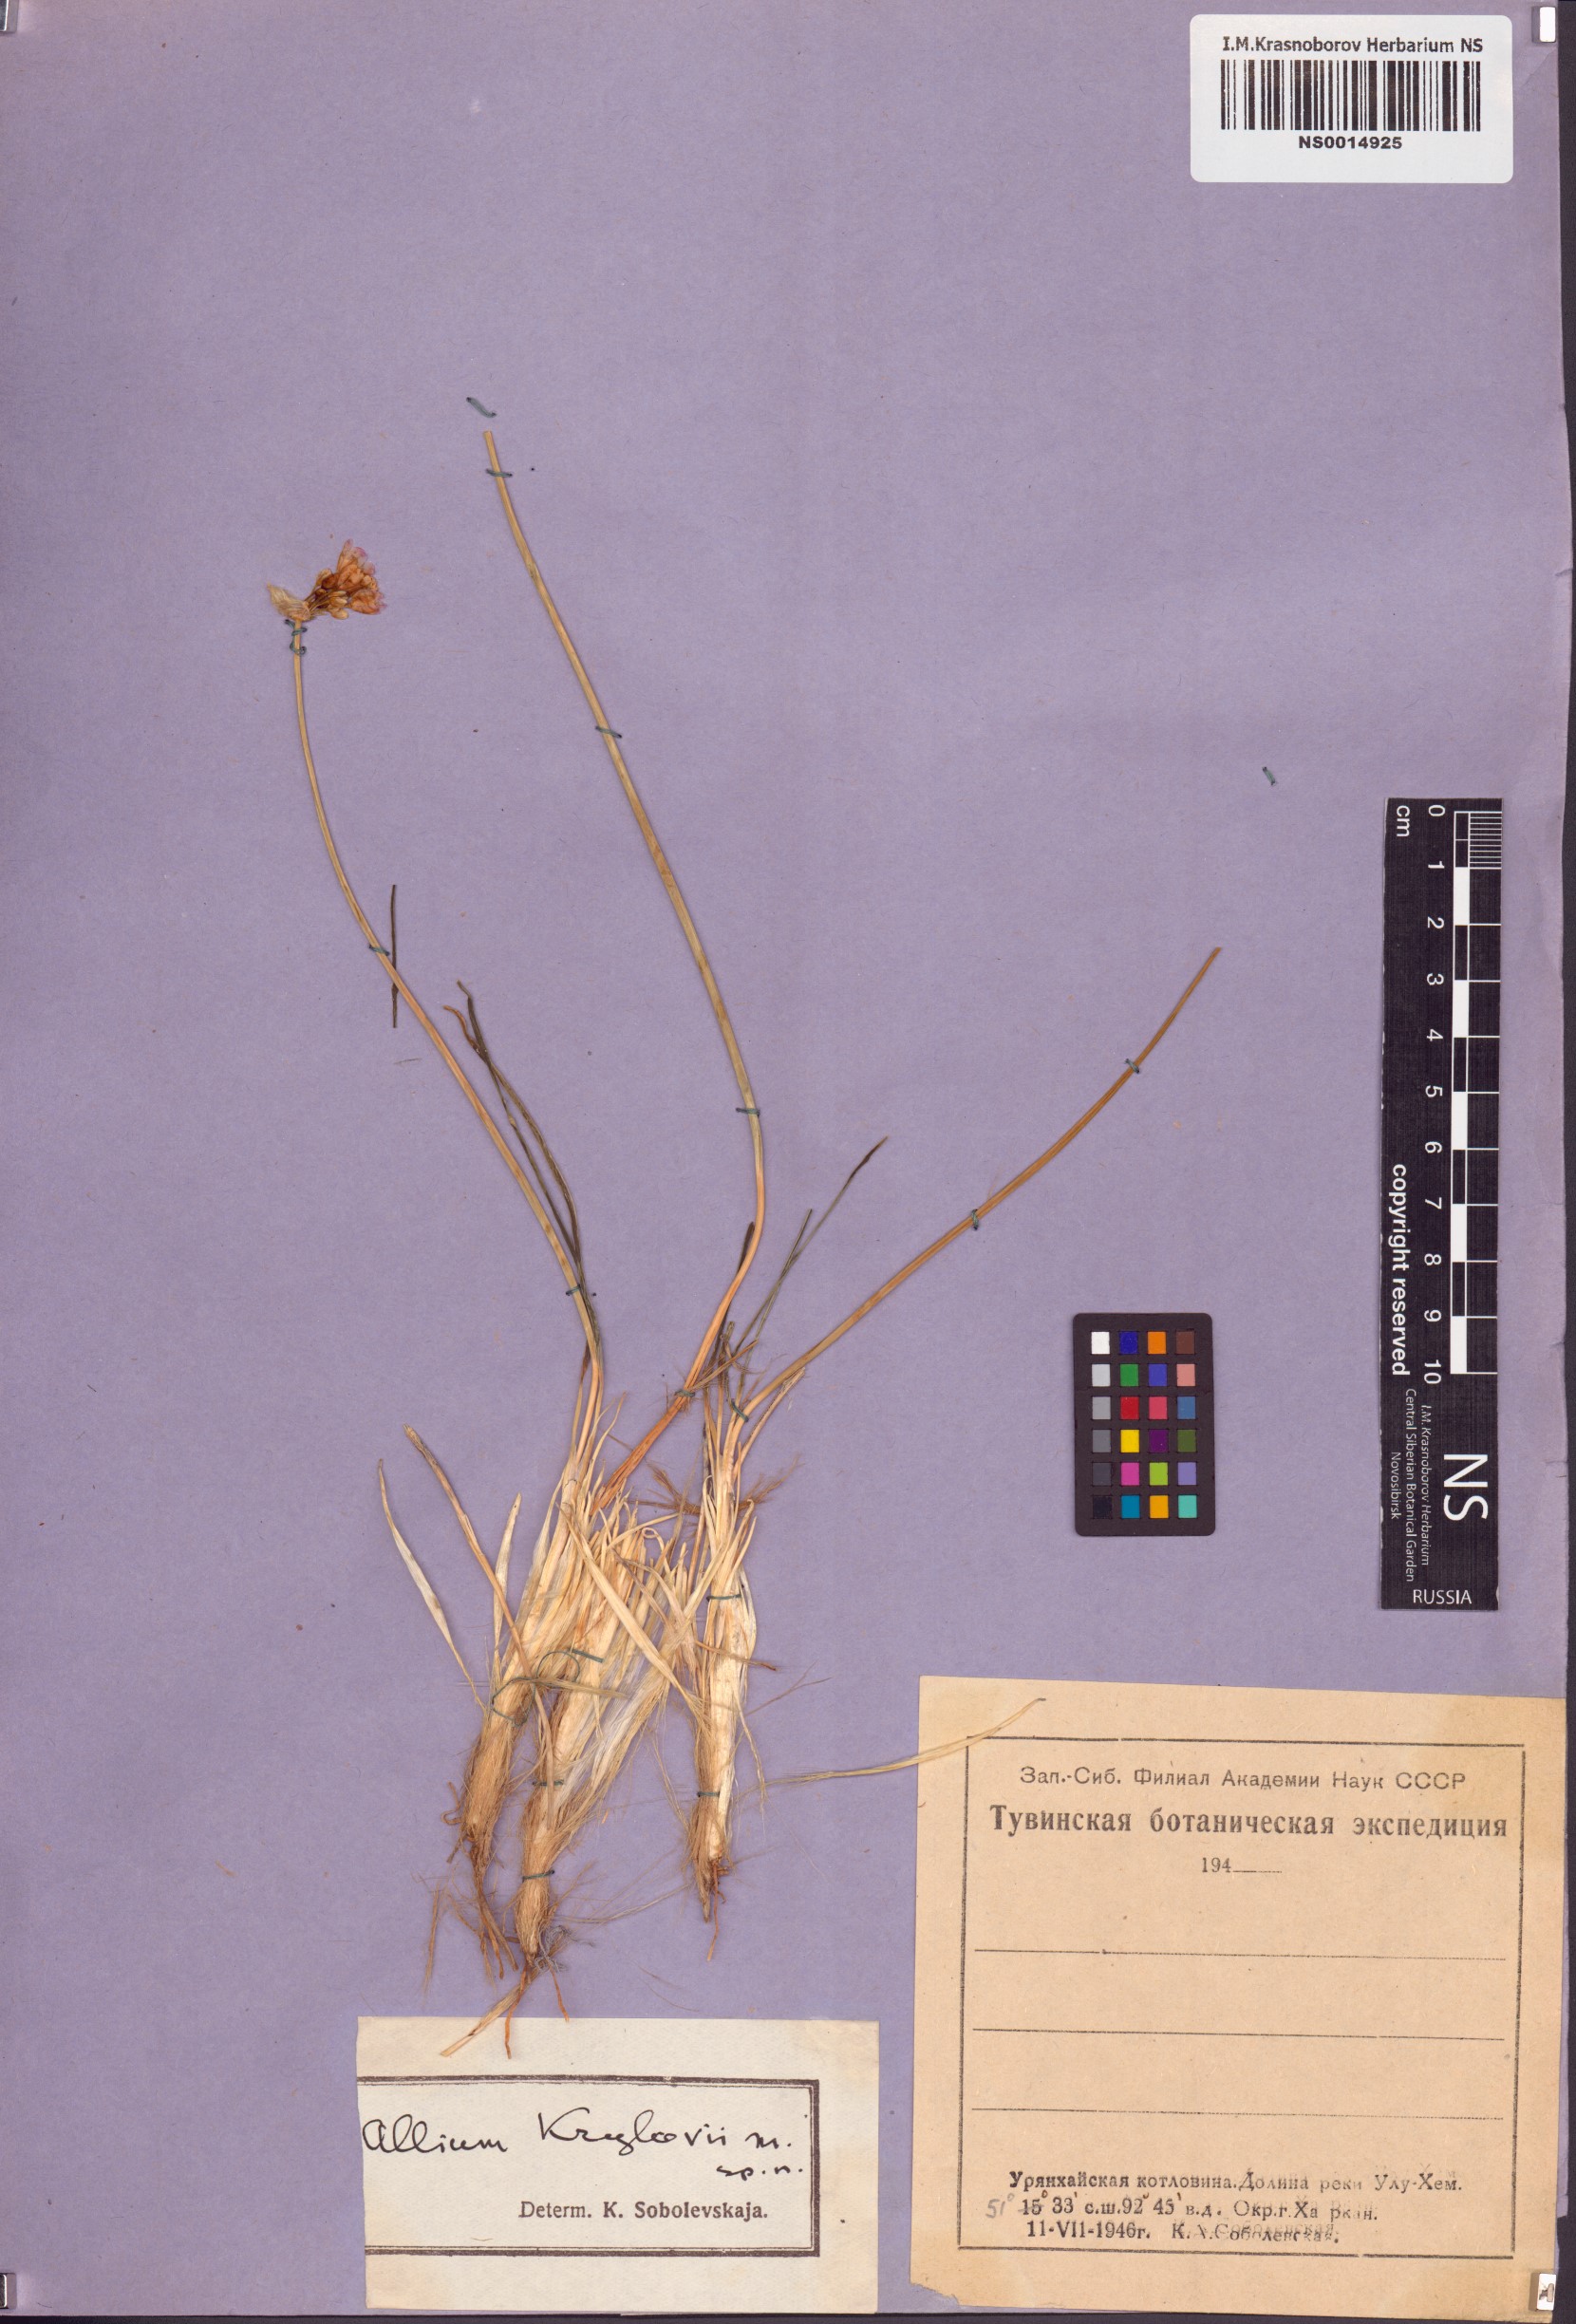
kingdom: Plantae
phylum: Tracheophyta
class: Liliopsida
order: Asparagales
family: Amaryllidaceae
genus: Allium
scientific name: Allium mongolicum
